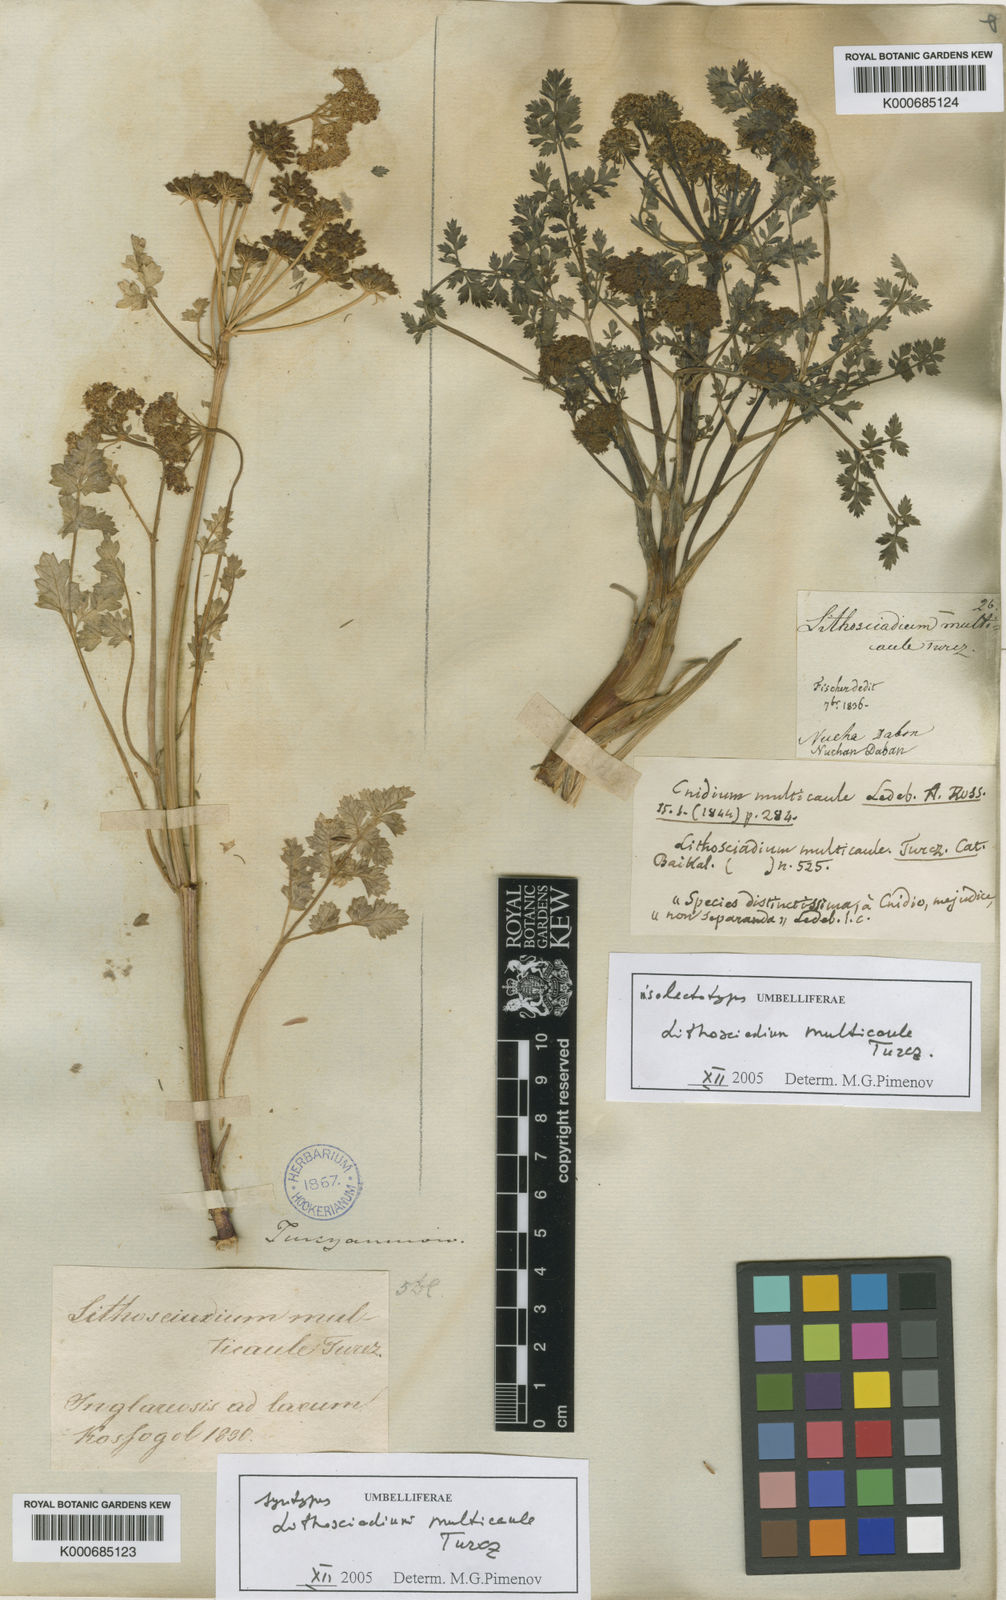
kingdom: Plantae
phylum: Tracheophyta
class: Magnoliopsida
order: Apiales
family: Apiaceae
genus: Lithosciadium
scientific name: Lithosciadium multicaule
